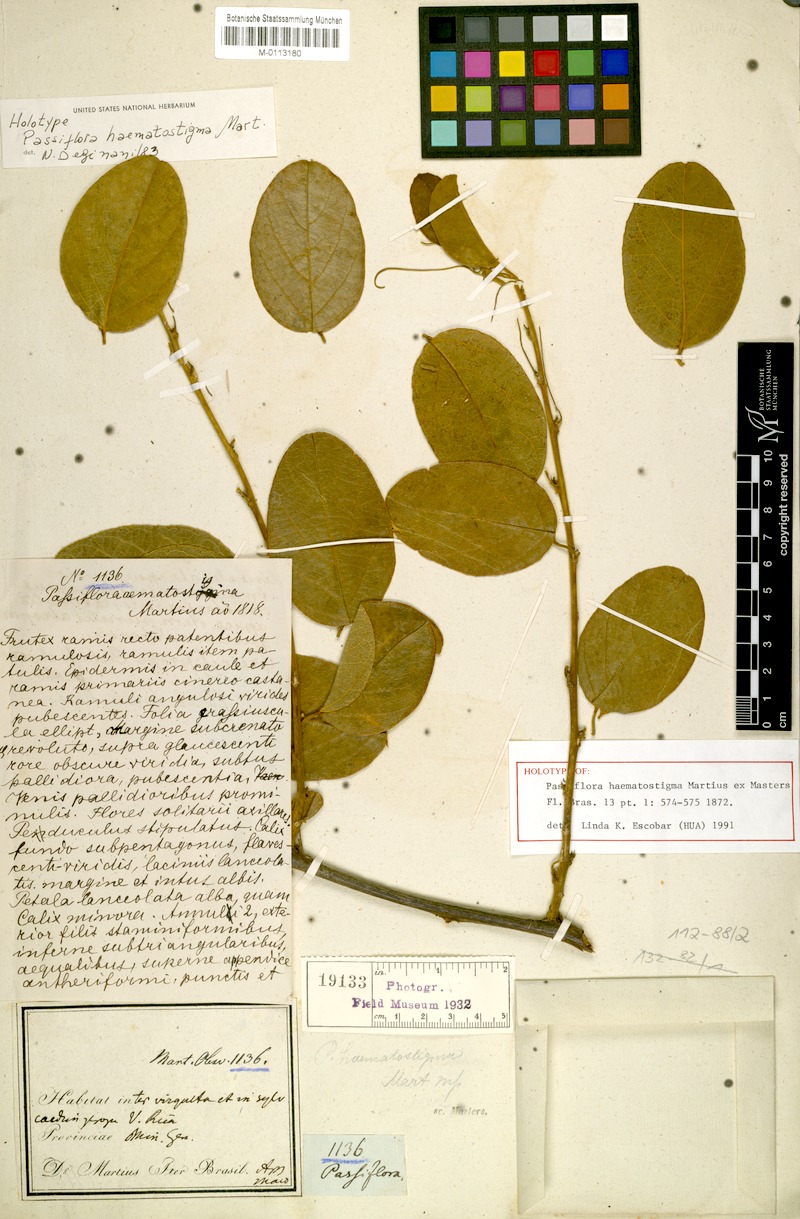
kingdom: Plantae
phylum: Tracheophyta
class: Magnoliopsida
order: Malpighiales
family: Passifloraceae
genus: Passiflora
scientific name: Passiflora haematostigma
